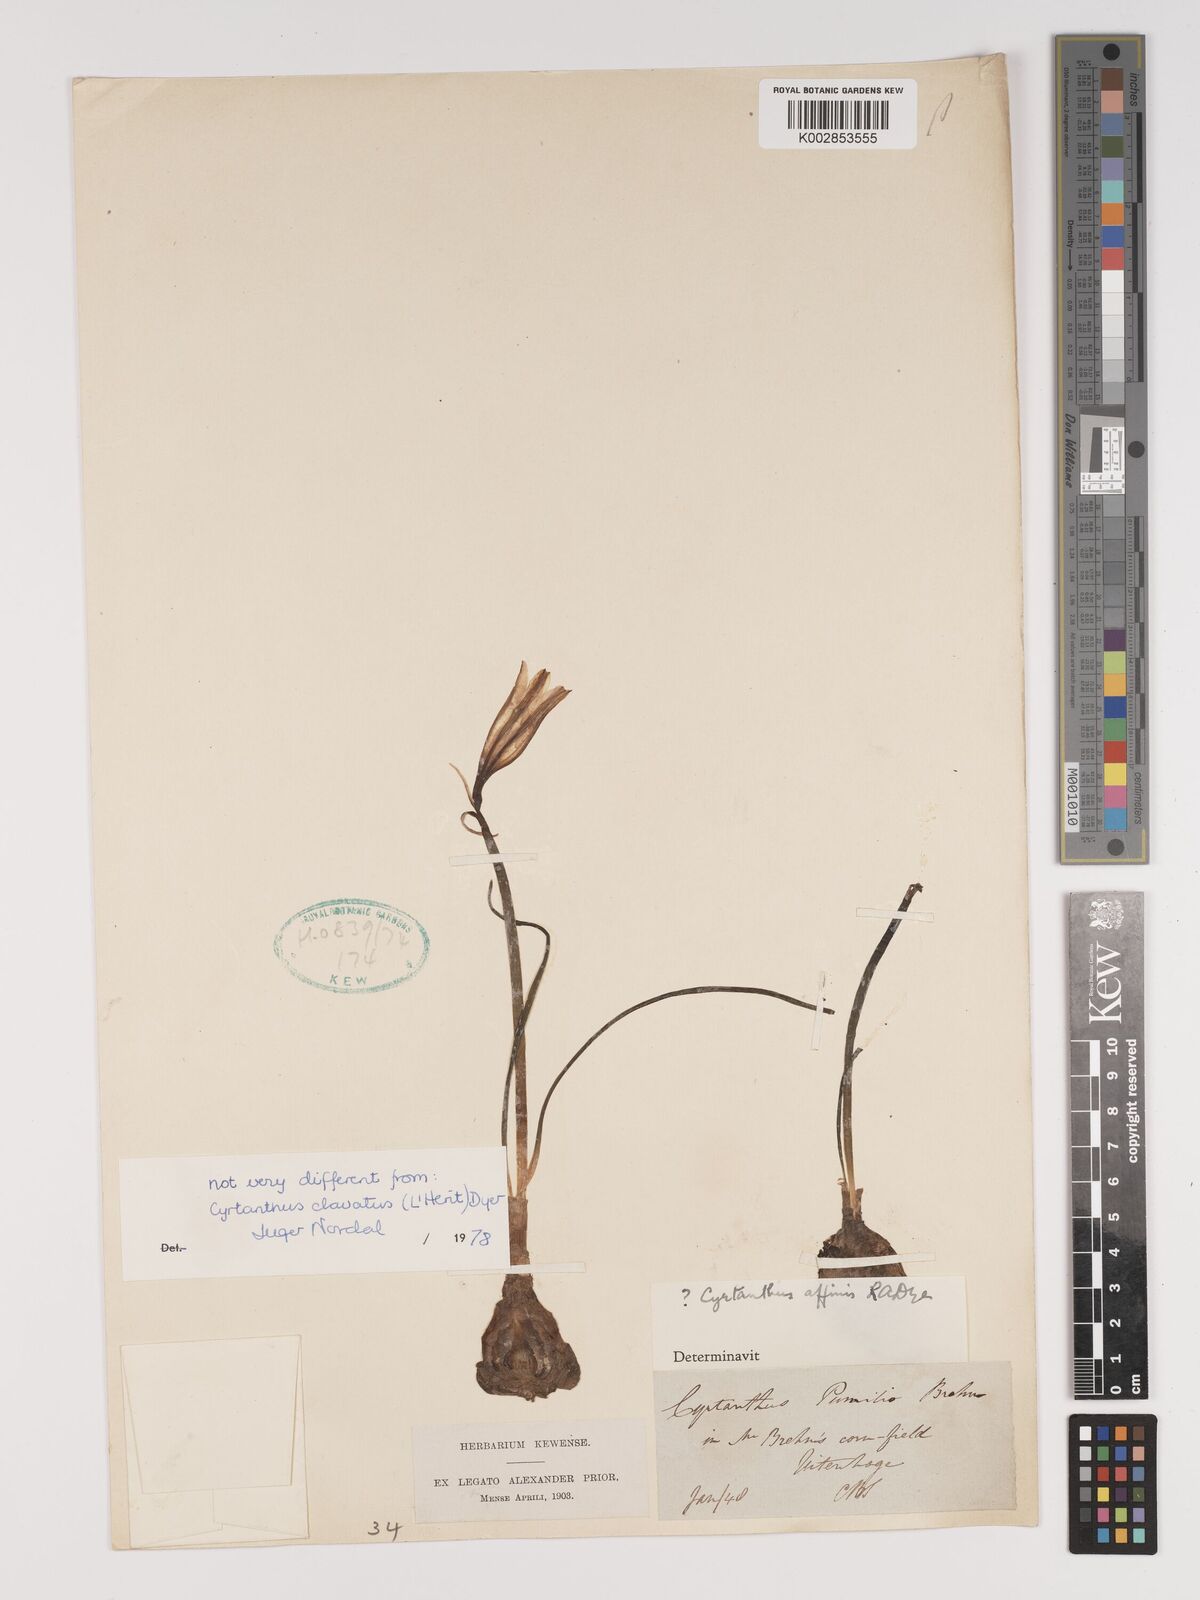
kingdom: Plantae
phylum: Tracheophyta
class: Liliopsida
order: Asparagales
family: Amaryllidaceae
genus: Cyrtanthus
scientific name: Cyrtanthus loddigesianus
